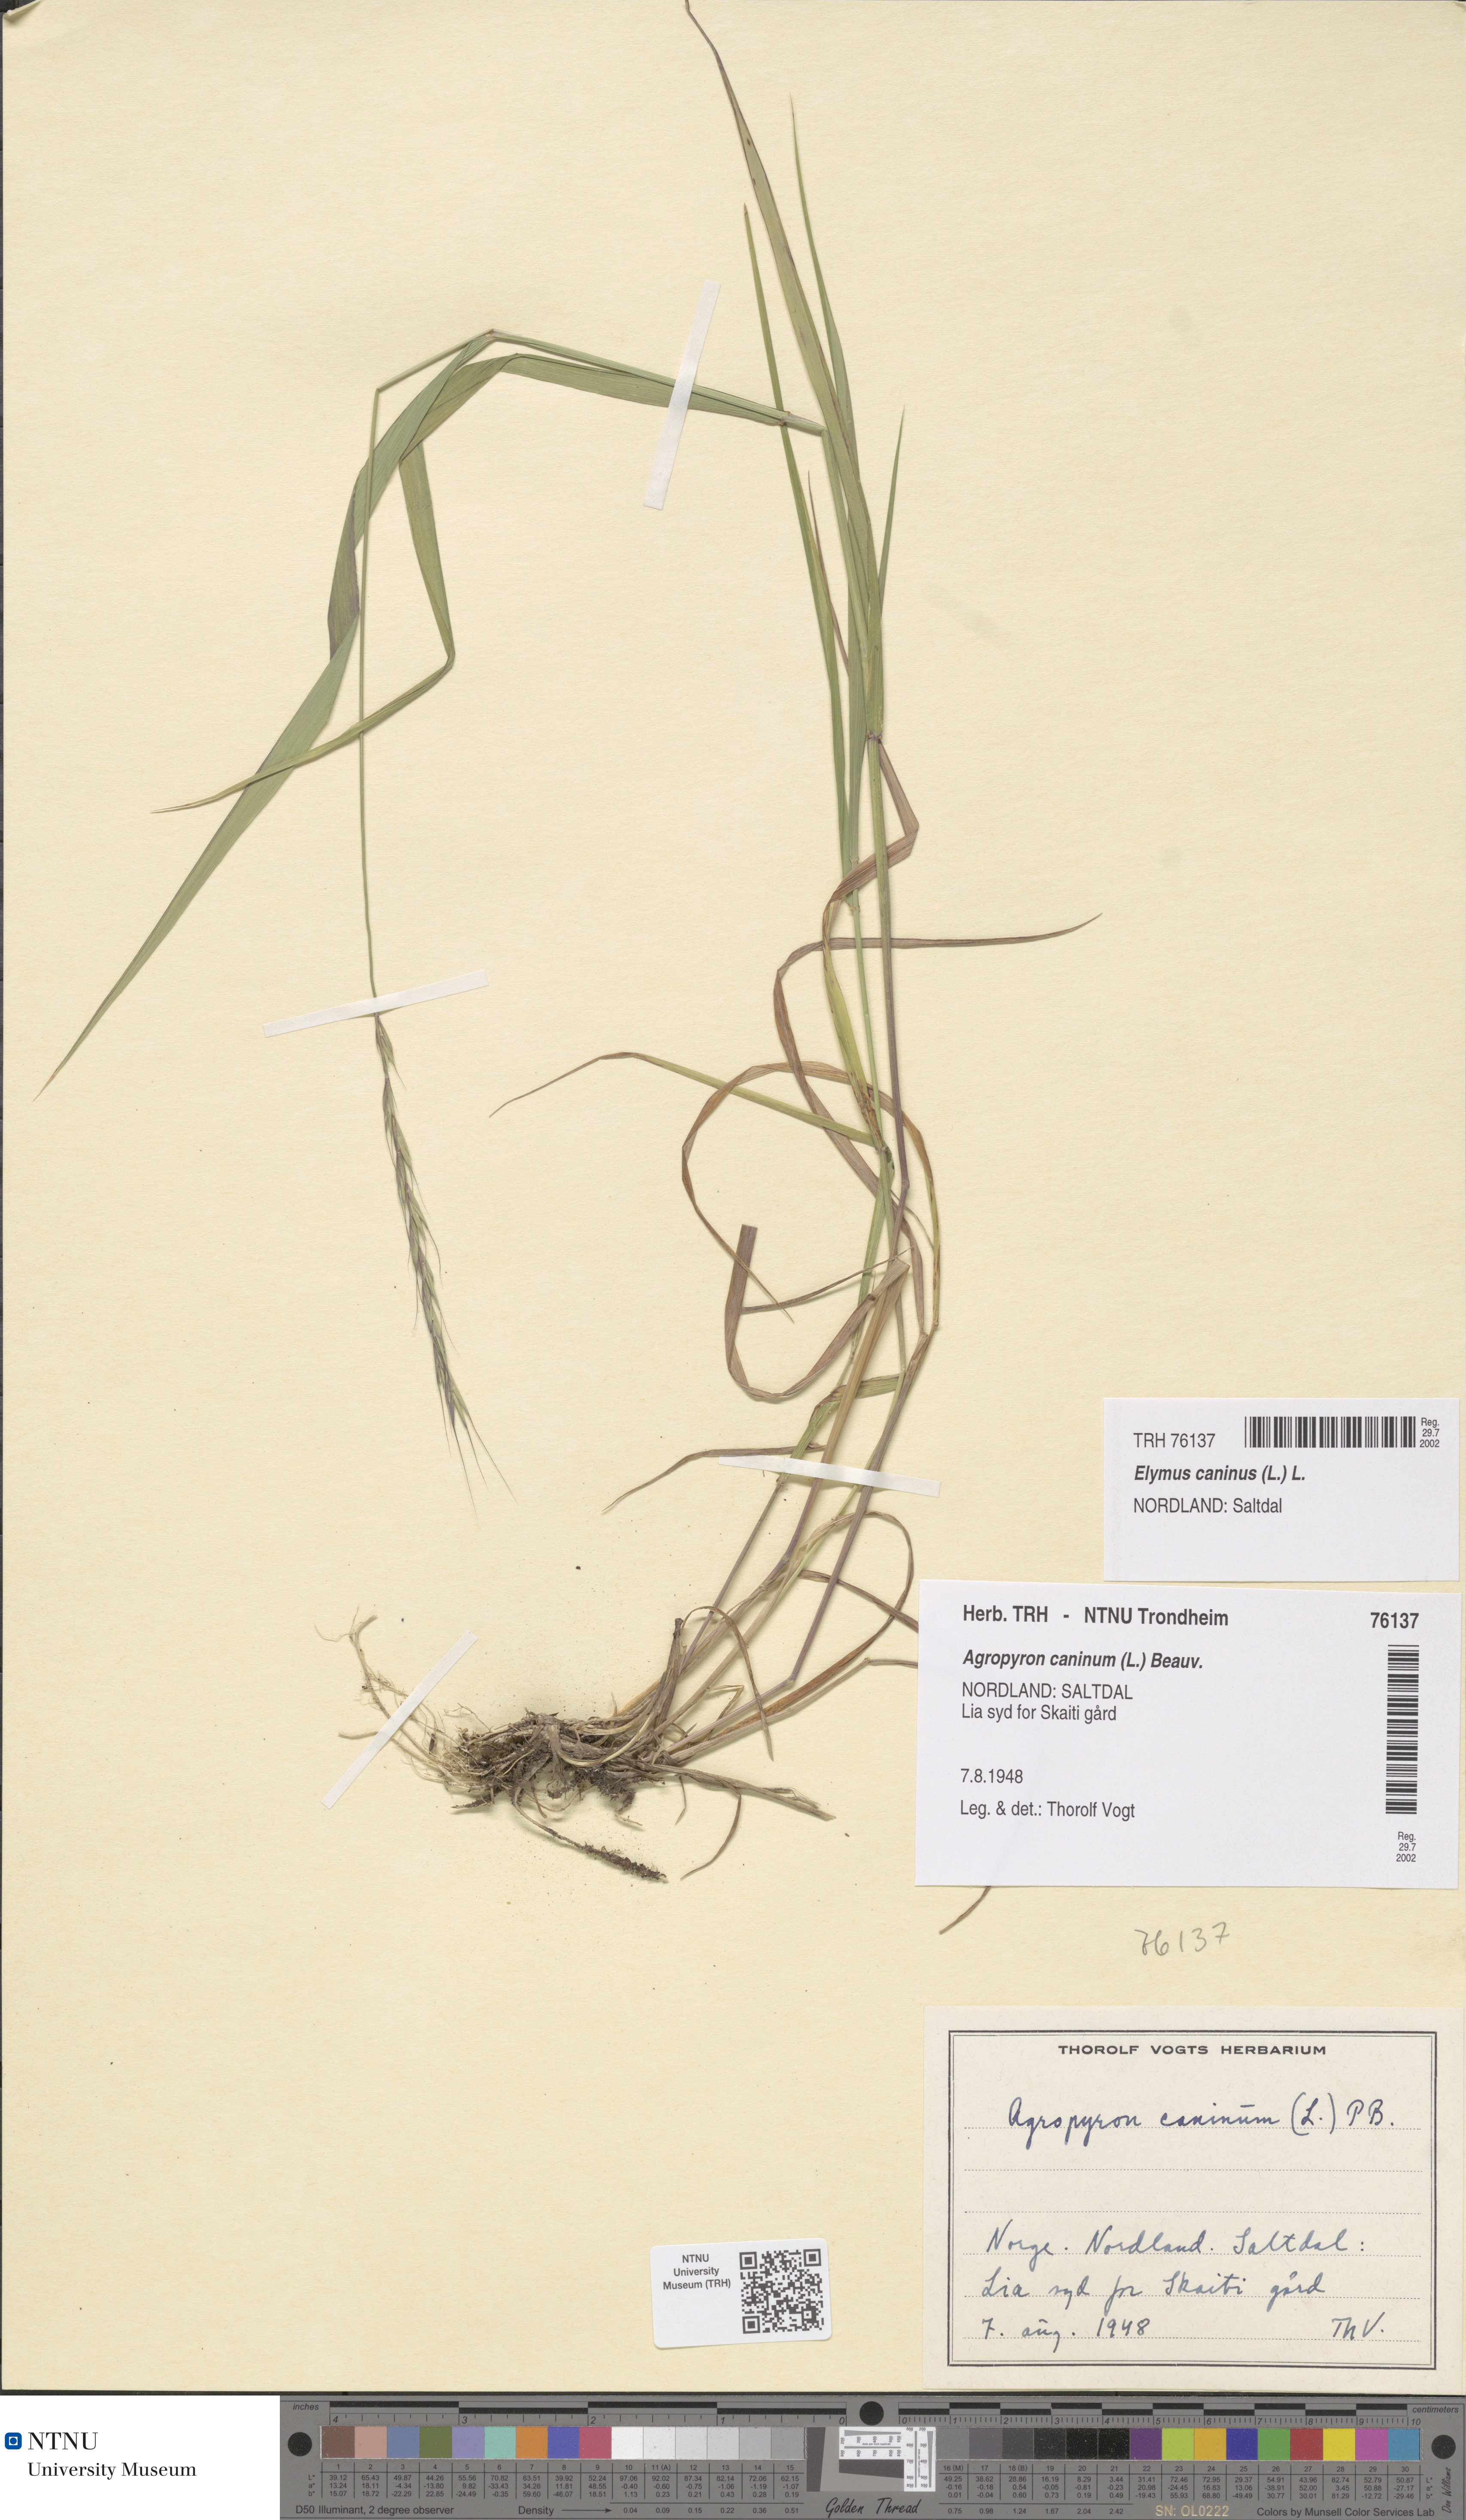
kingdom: Plantae
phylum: Tracheophyta
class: Liliopsida
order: Poales
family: Poaceae
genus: Elymus
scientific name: Elymus caninus
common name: Bearded couch
